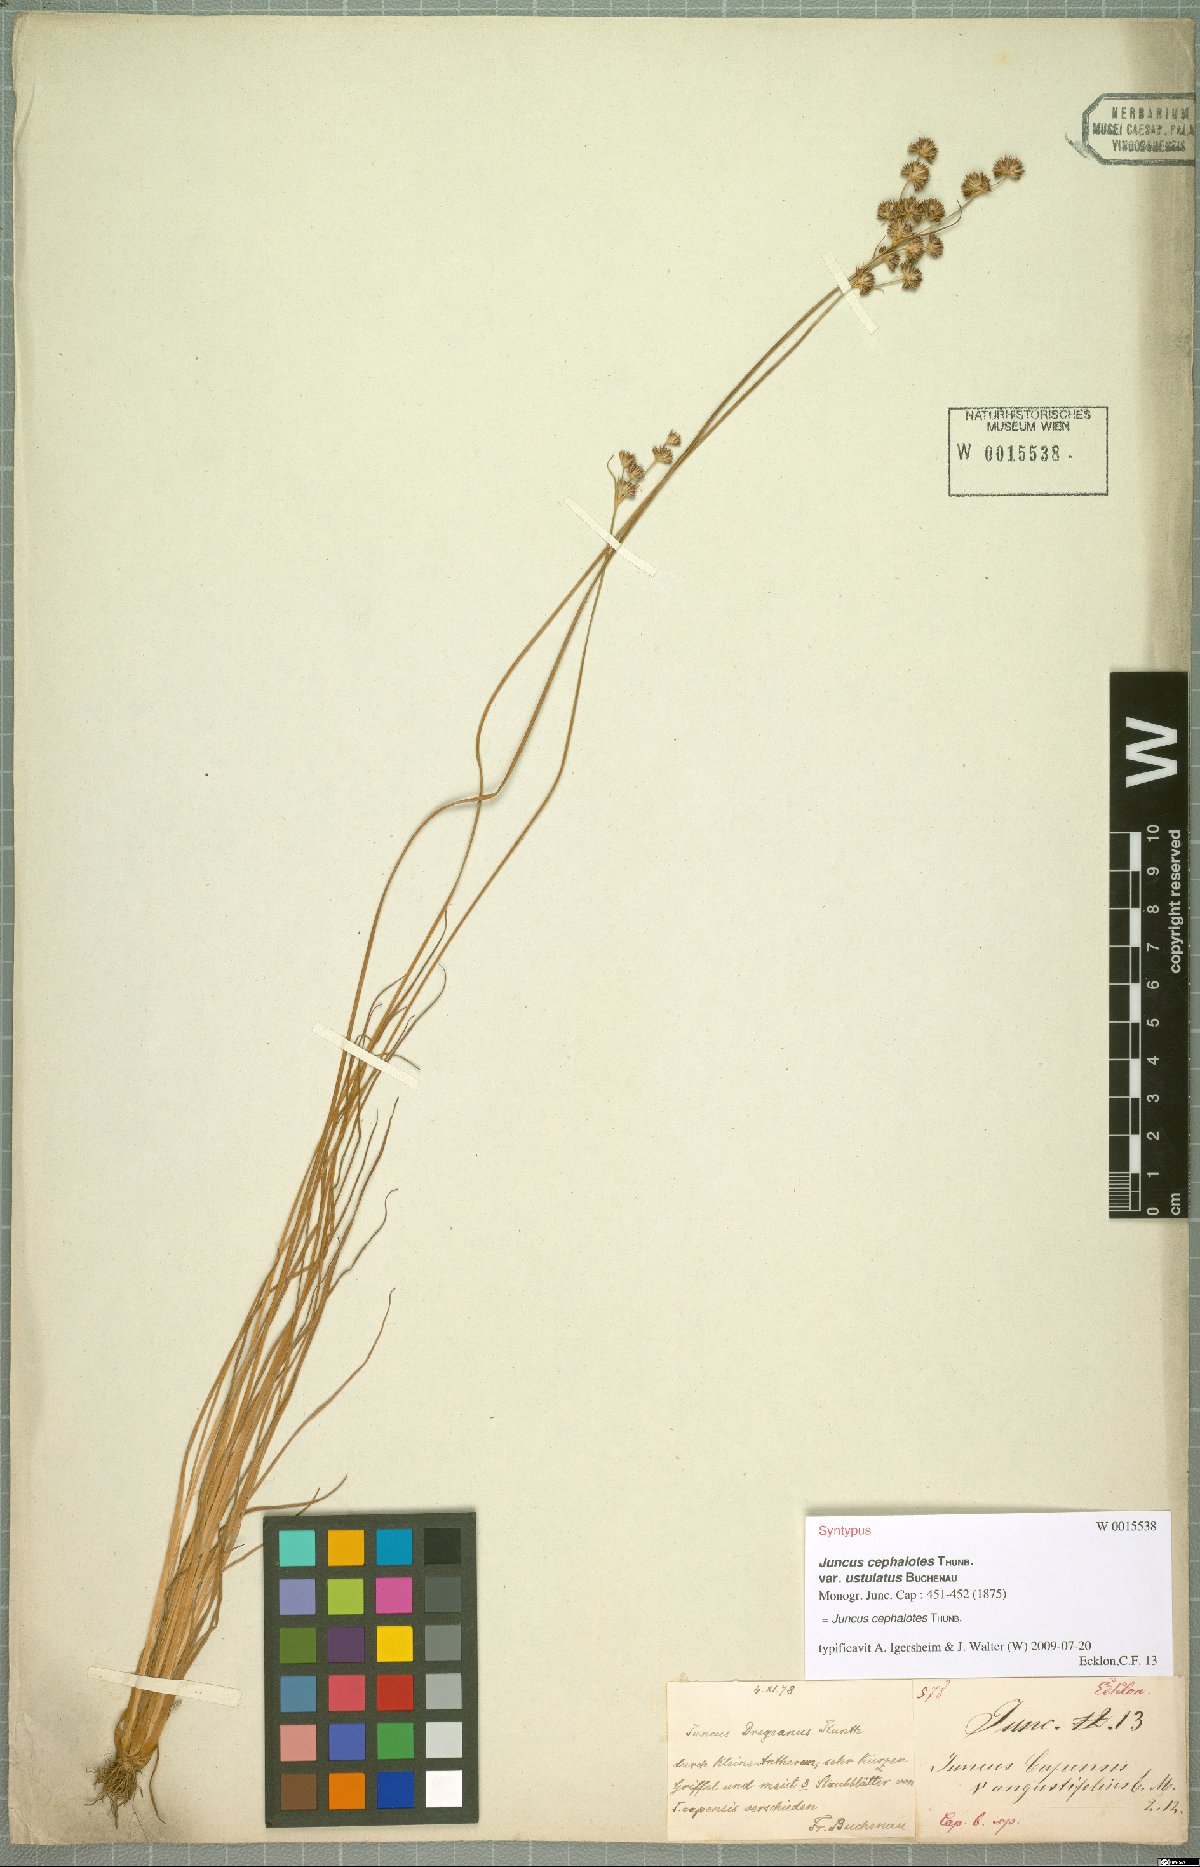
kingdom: Plantae
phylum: Tracheophyta
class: Liliopsida
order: Poales
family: Juncaceae
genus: Juncus
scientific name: Juncus cephalotes
